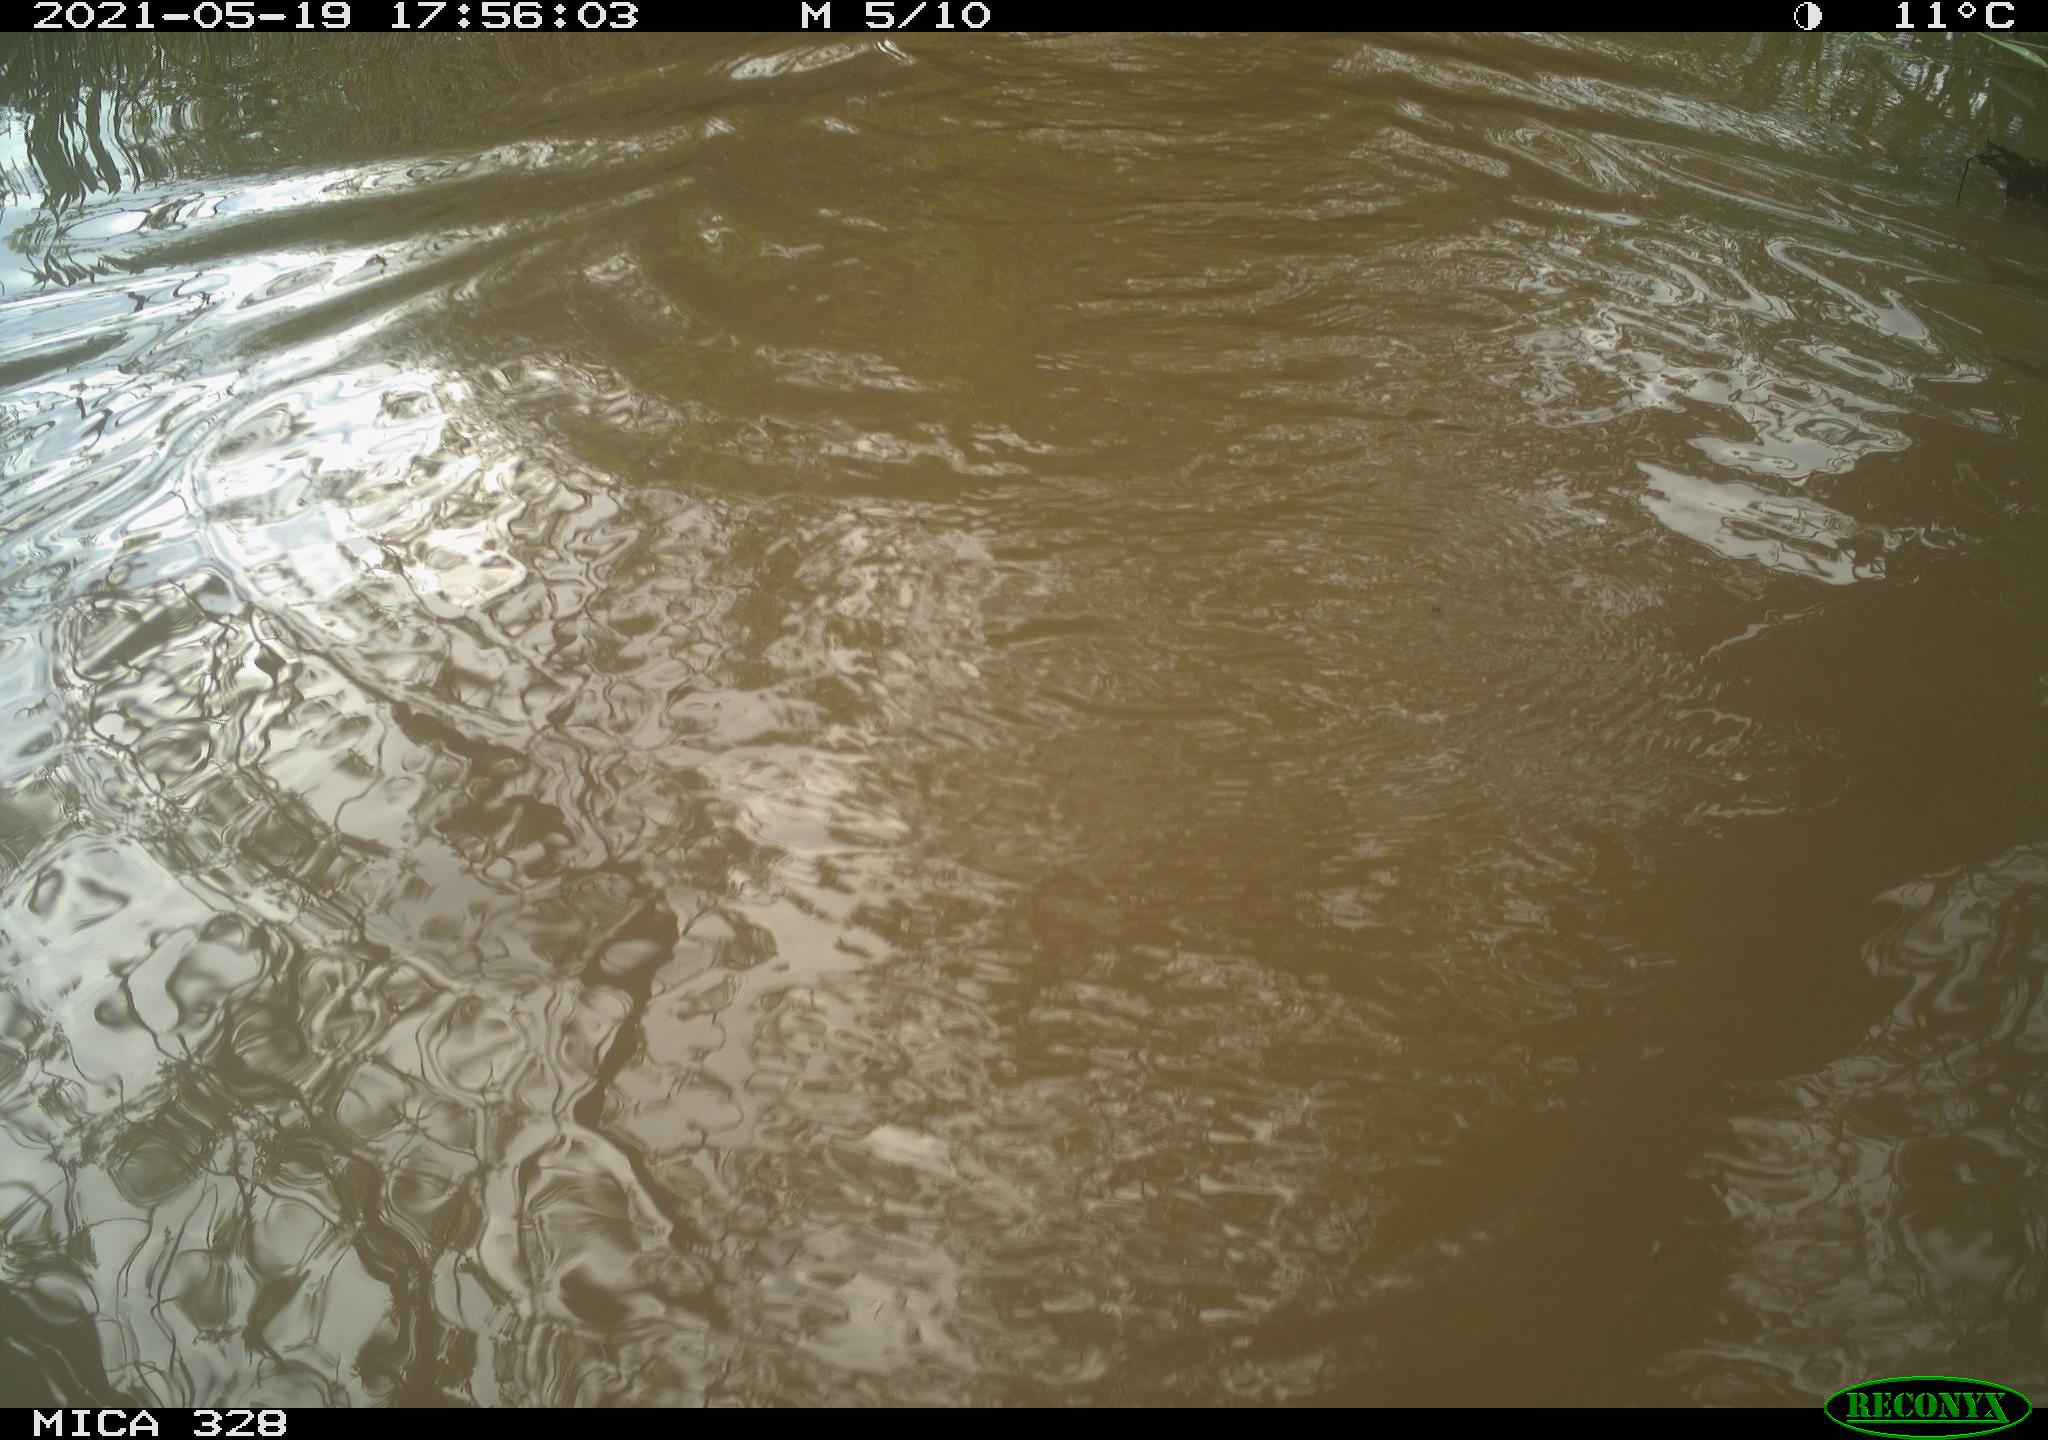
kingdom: Animalia
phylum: Chordata
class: Mammalia
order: Rodentia
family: Cricetidae
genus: Ondatra
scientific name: Ondatra zibethicus
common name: Muskrat
